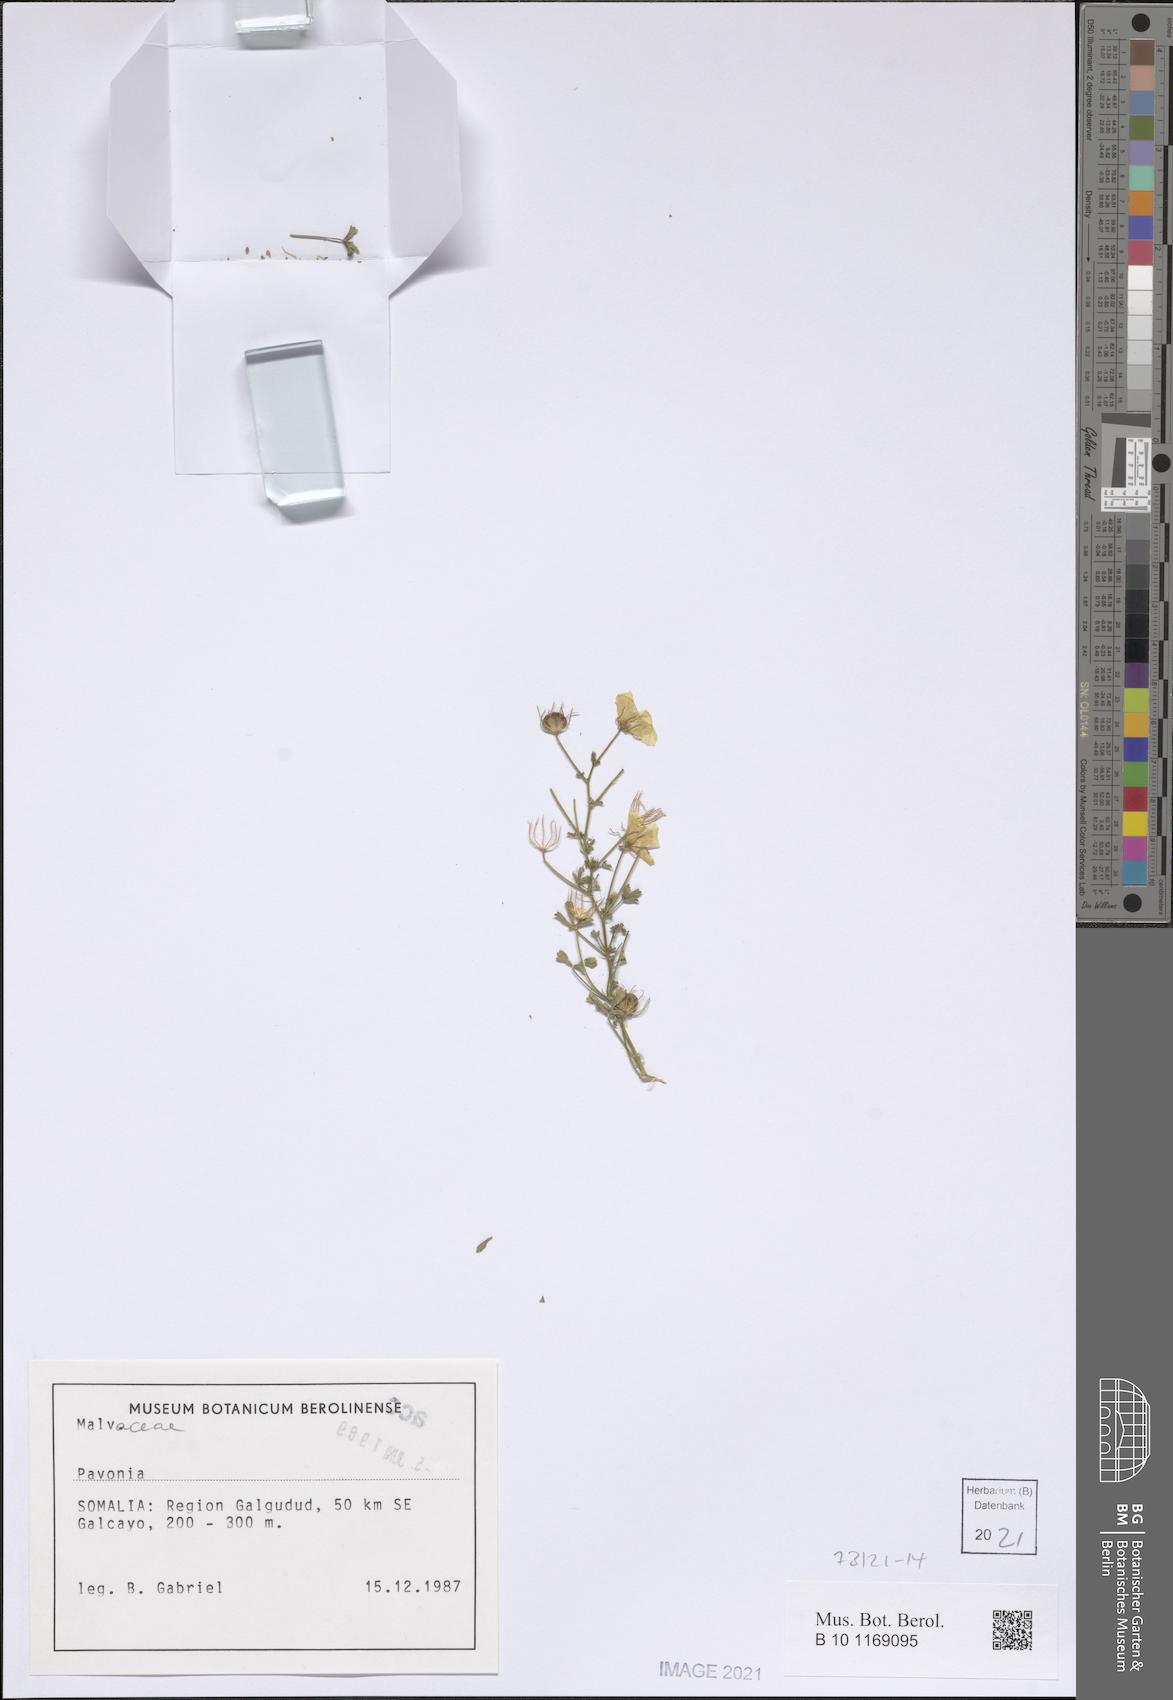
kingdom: Plantae
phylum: Tracheophyta
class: Magnoliopsida
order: Malvales
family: Malvaceae
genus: Pavonia
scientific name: Pavonia zeylanica
